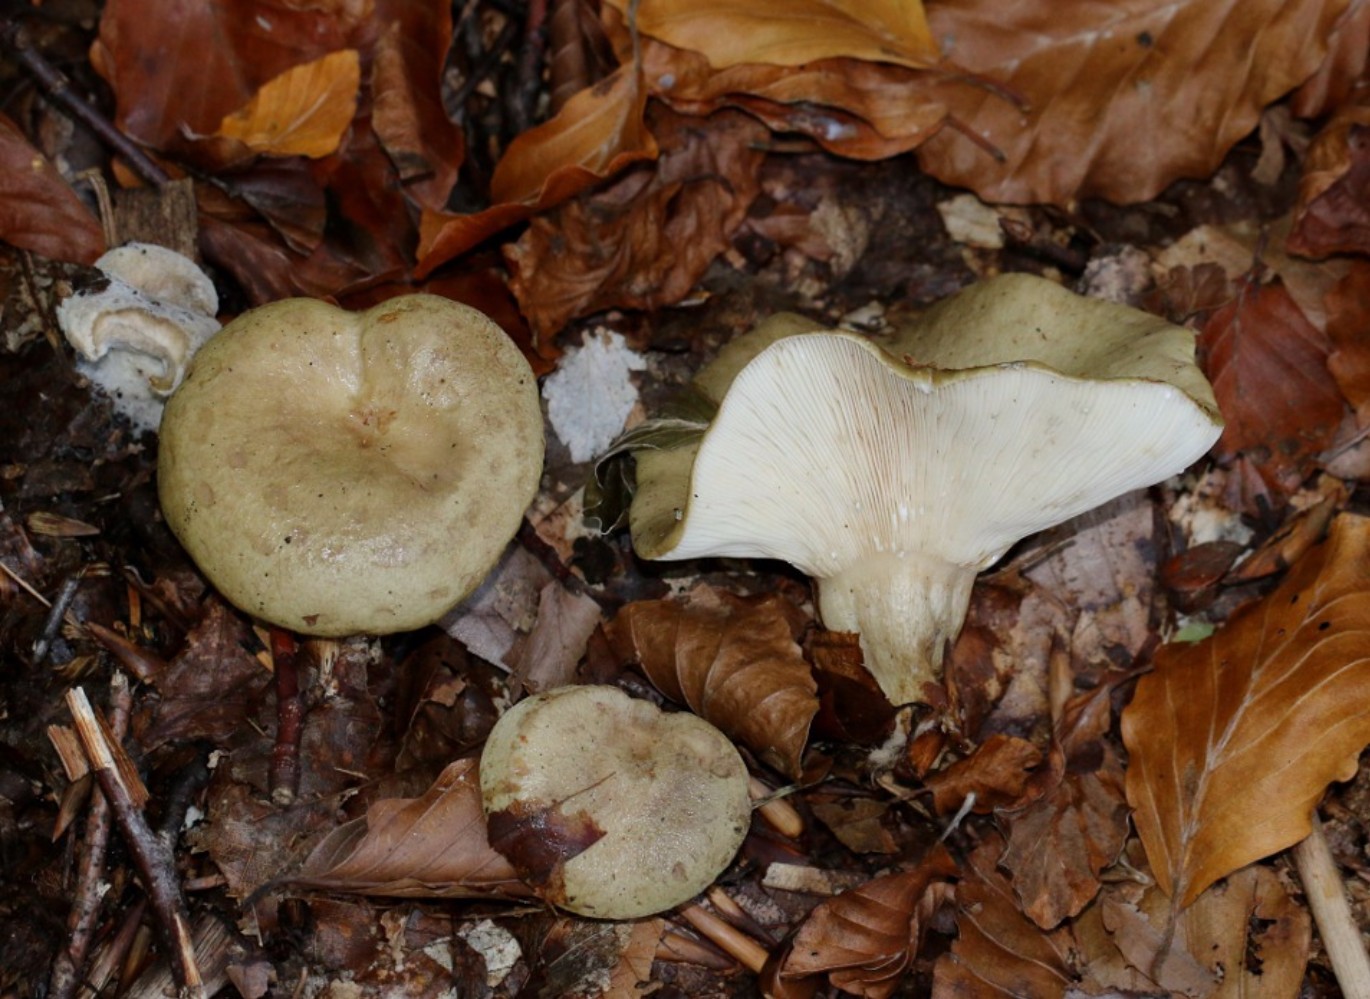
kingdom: Fungi
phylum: Basidiomycota
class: Agaricomycetes
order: Russulales
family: Russulaceae
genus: Lactarius
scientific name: Lactarius blennius
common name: dråbeplettet mælkehat
